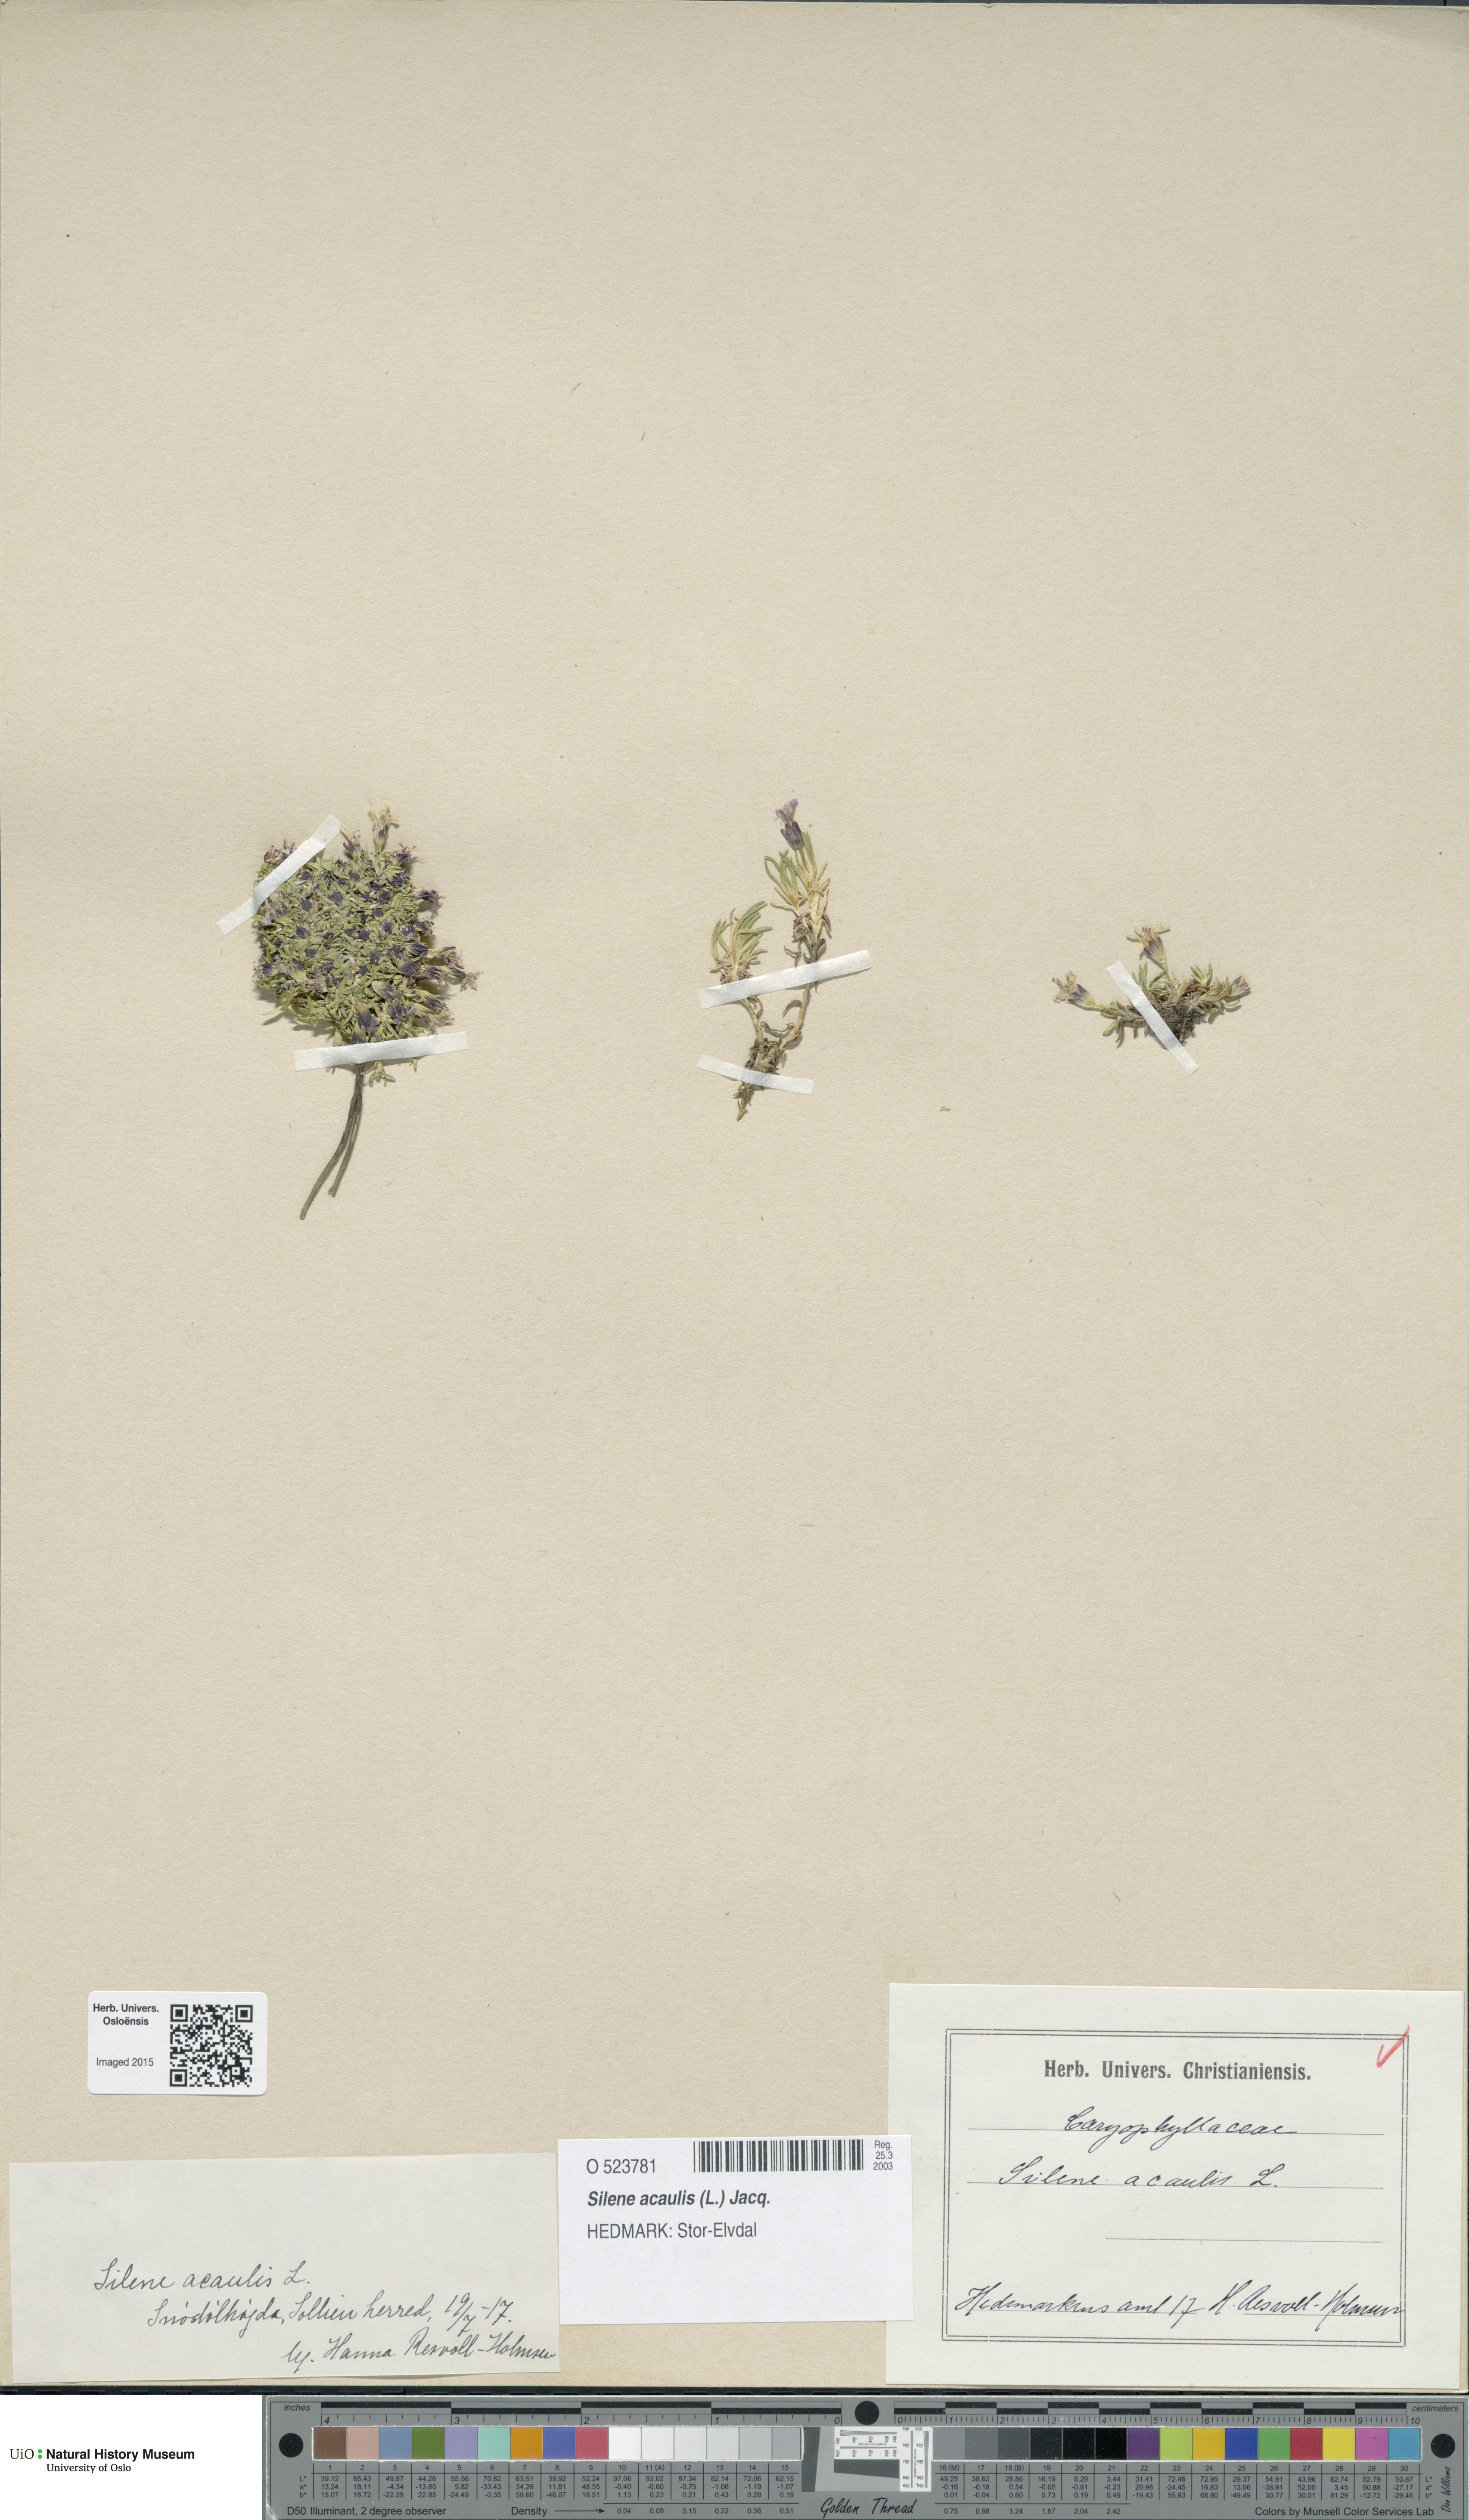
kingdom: Plantae
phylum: Tracheophyta
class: Magnoliopsida
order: Caryophyllales
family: Caryophyllaceae
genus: Silene
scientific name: Silene acaulis
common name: Moss campion
